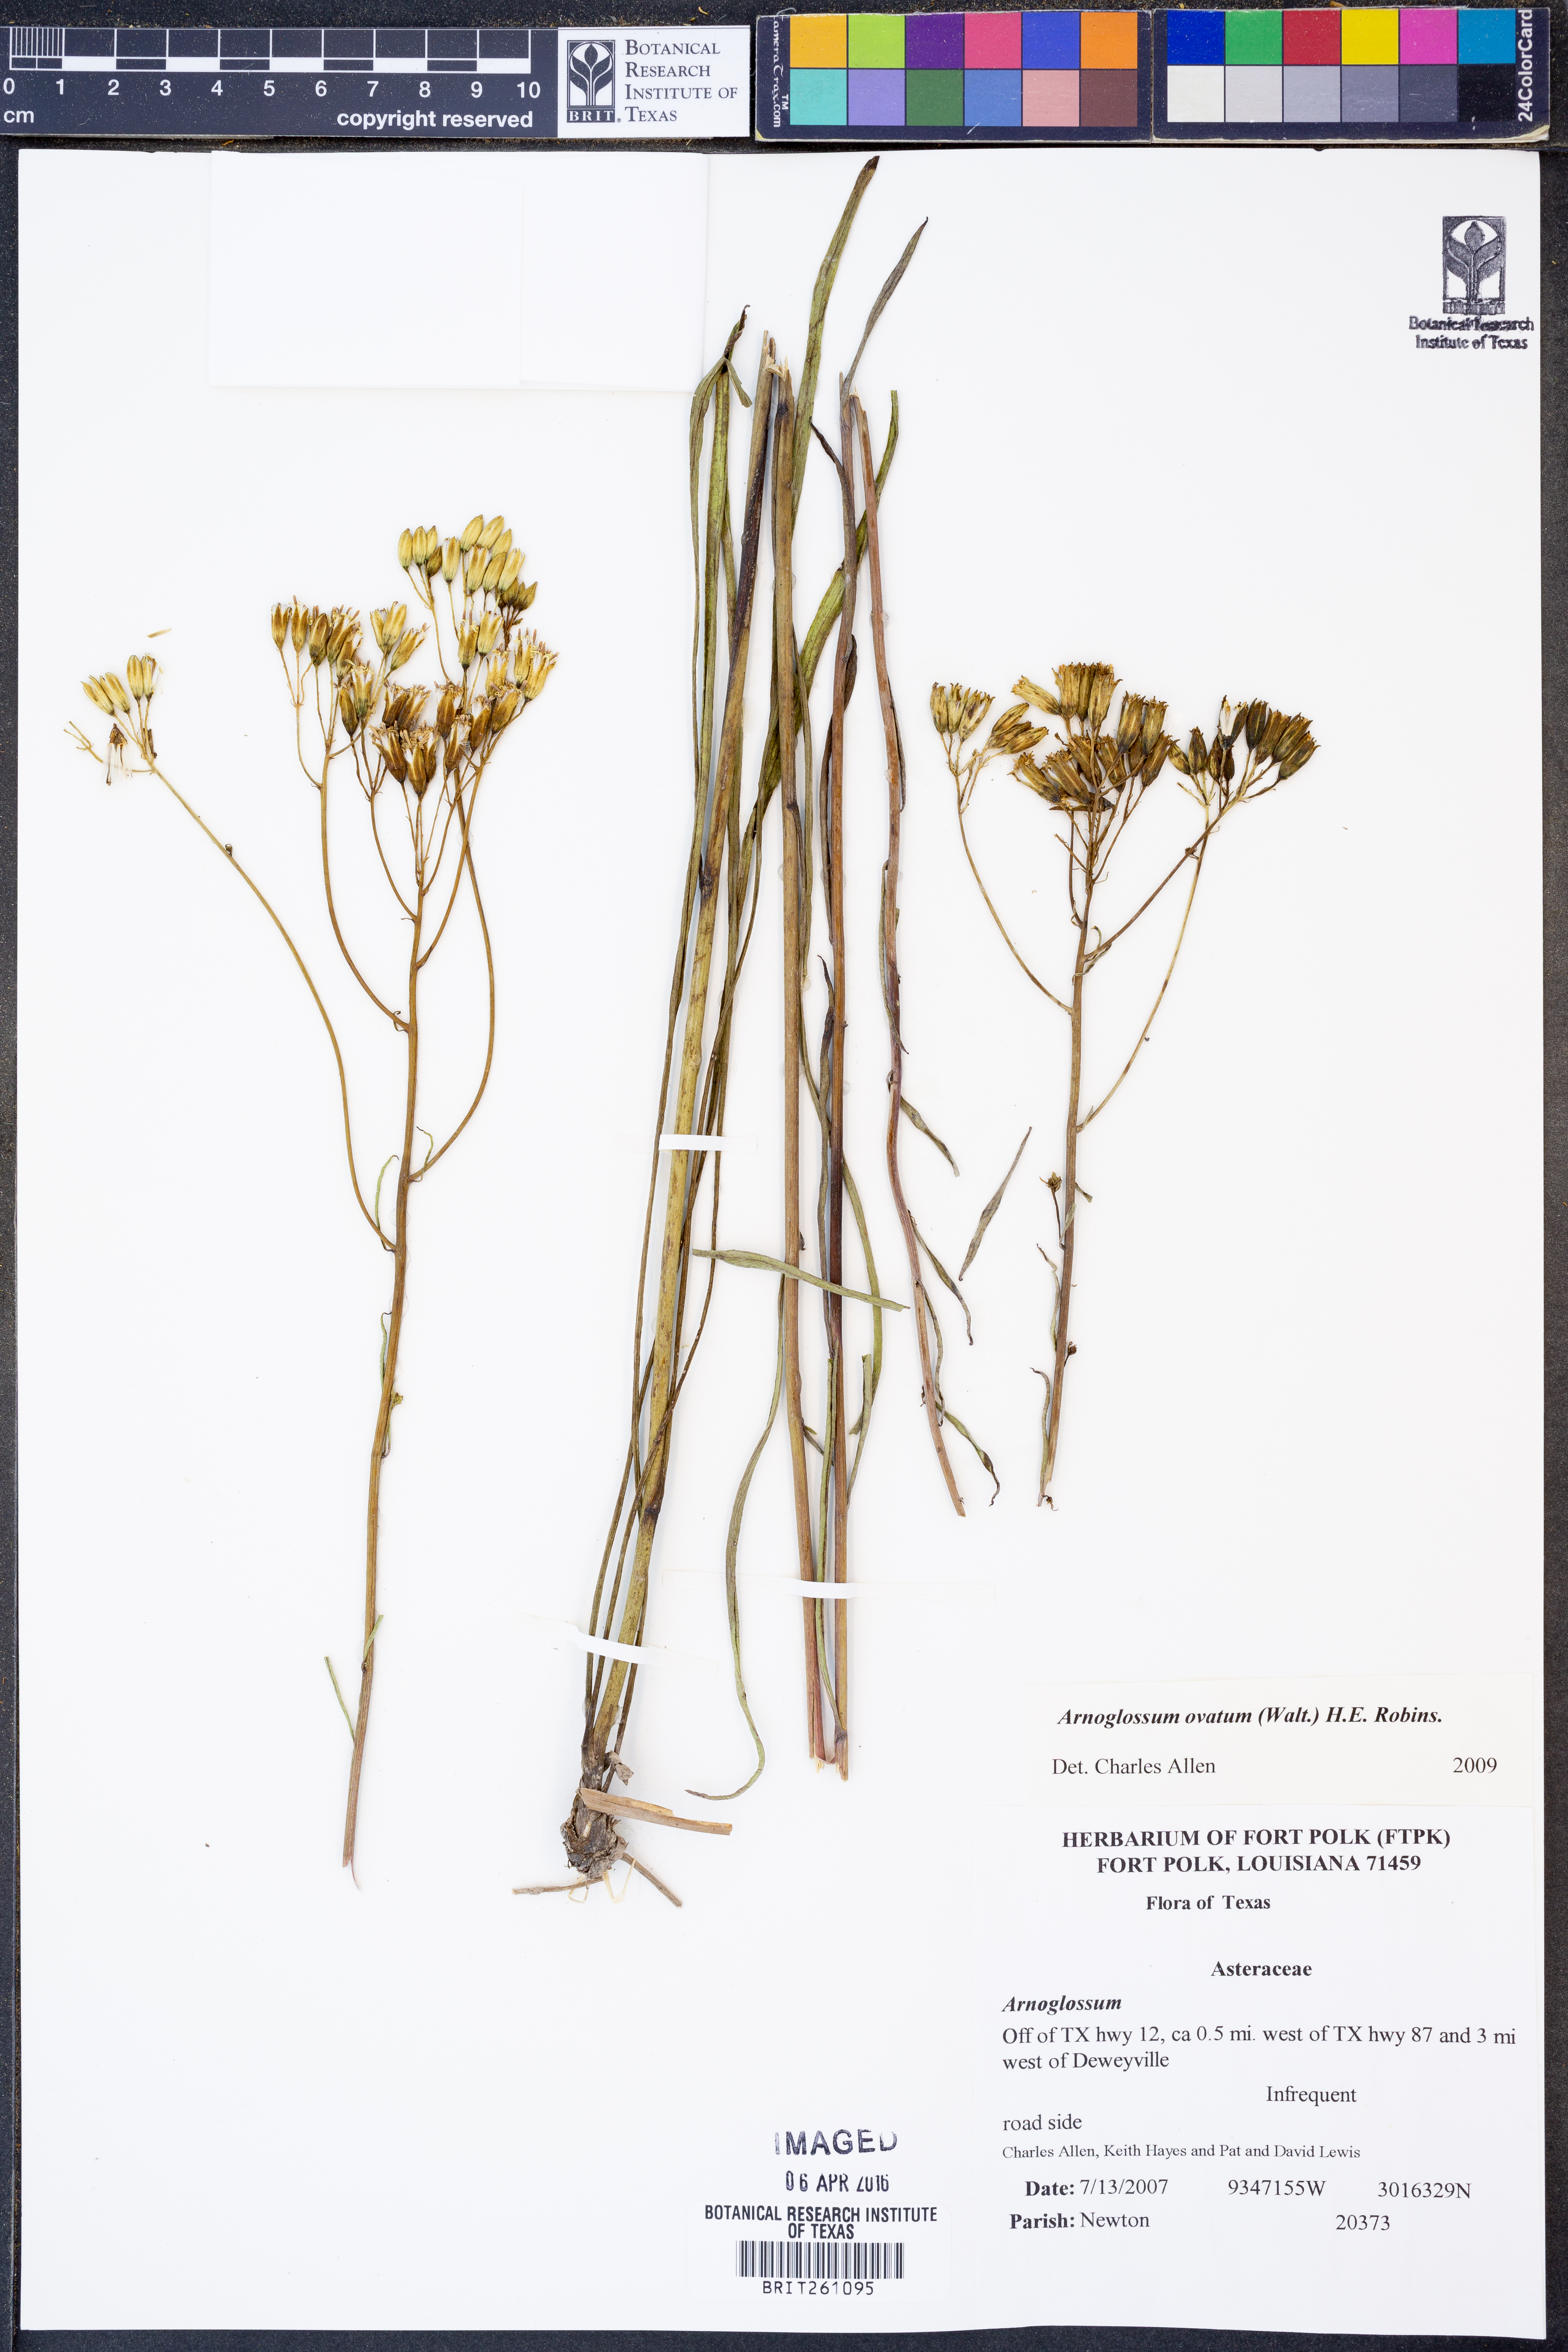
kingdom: Plantae
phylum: Tracheophyta
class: Magnoliopsida
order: Asterales
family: Asteraceae
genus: Arnoglossum
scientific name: Arnoglossum ovatum
